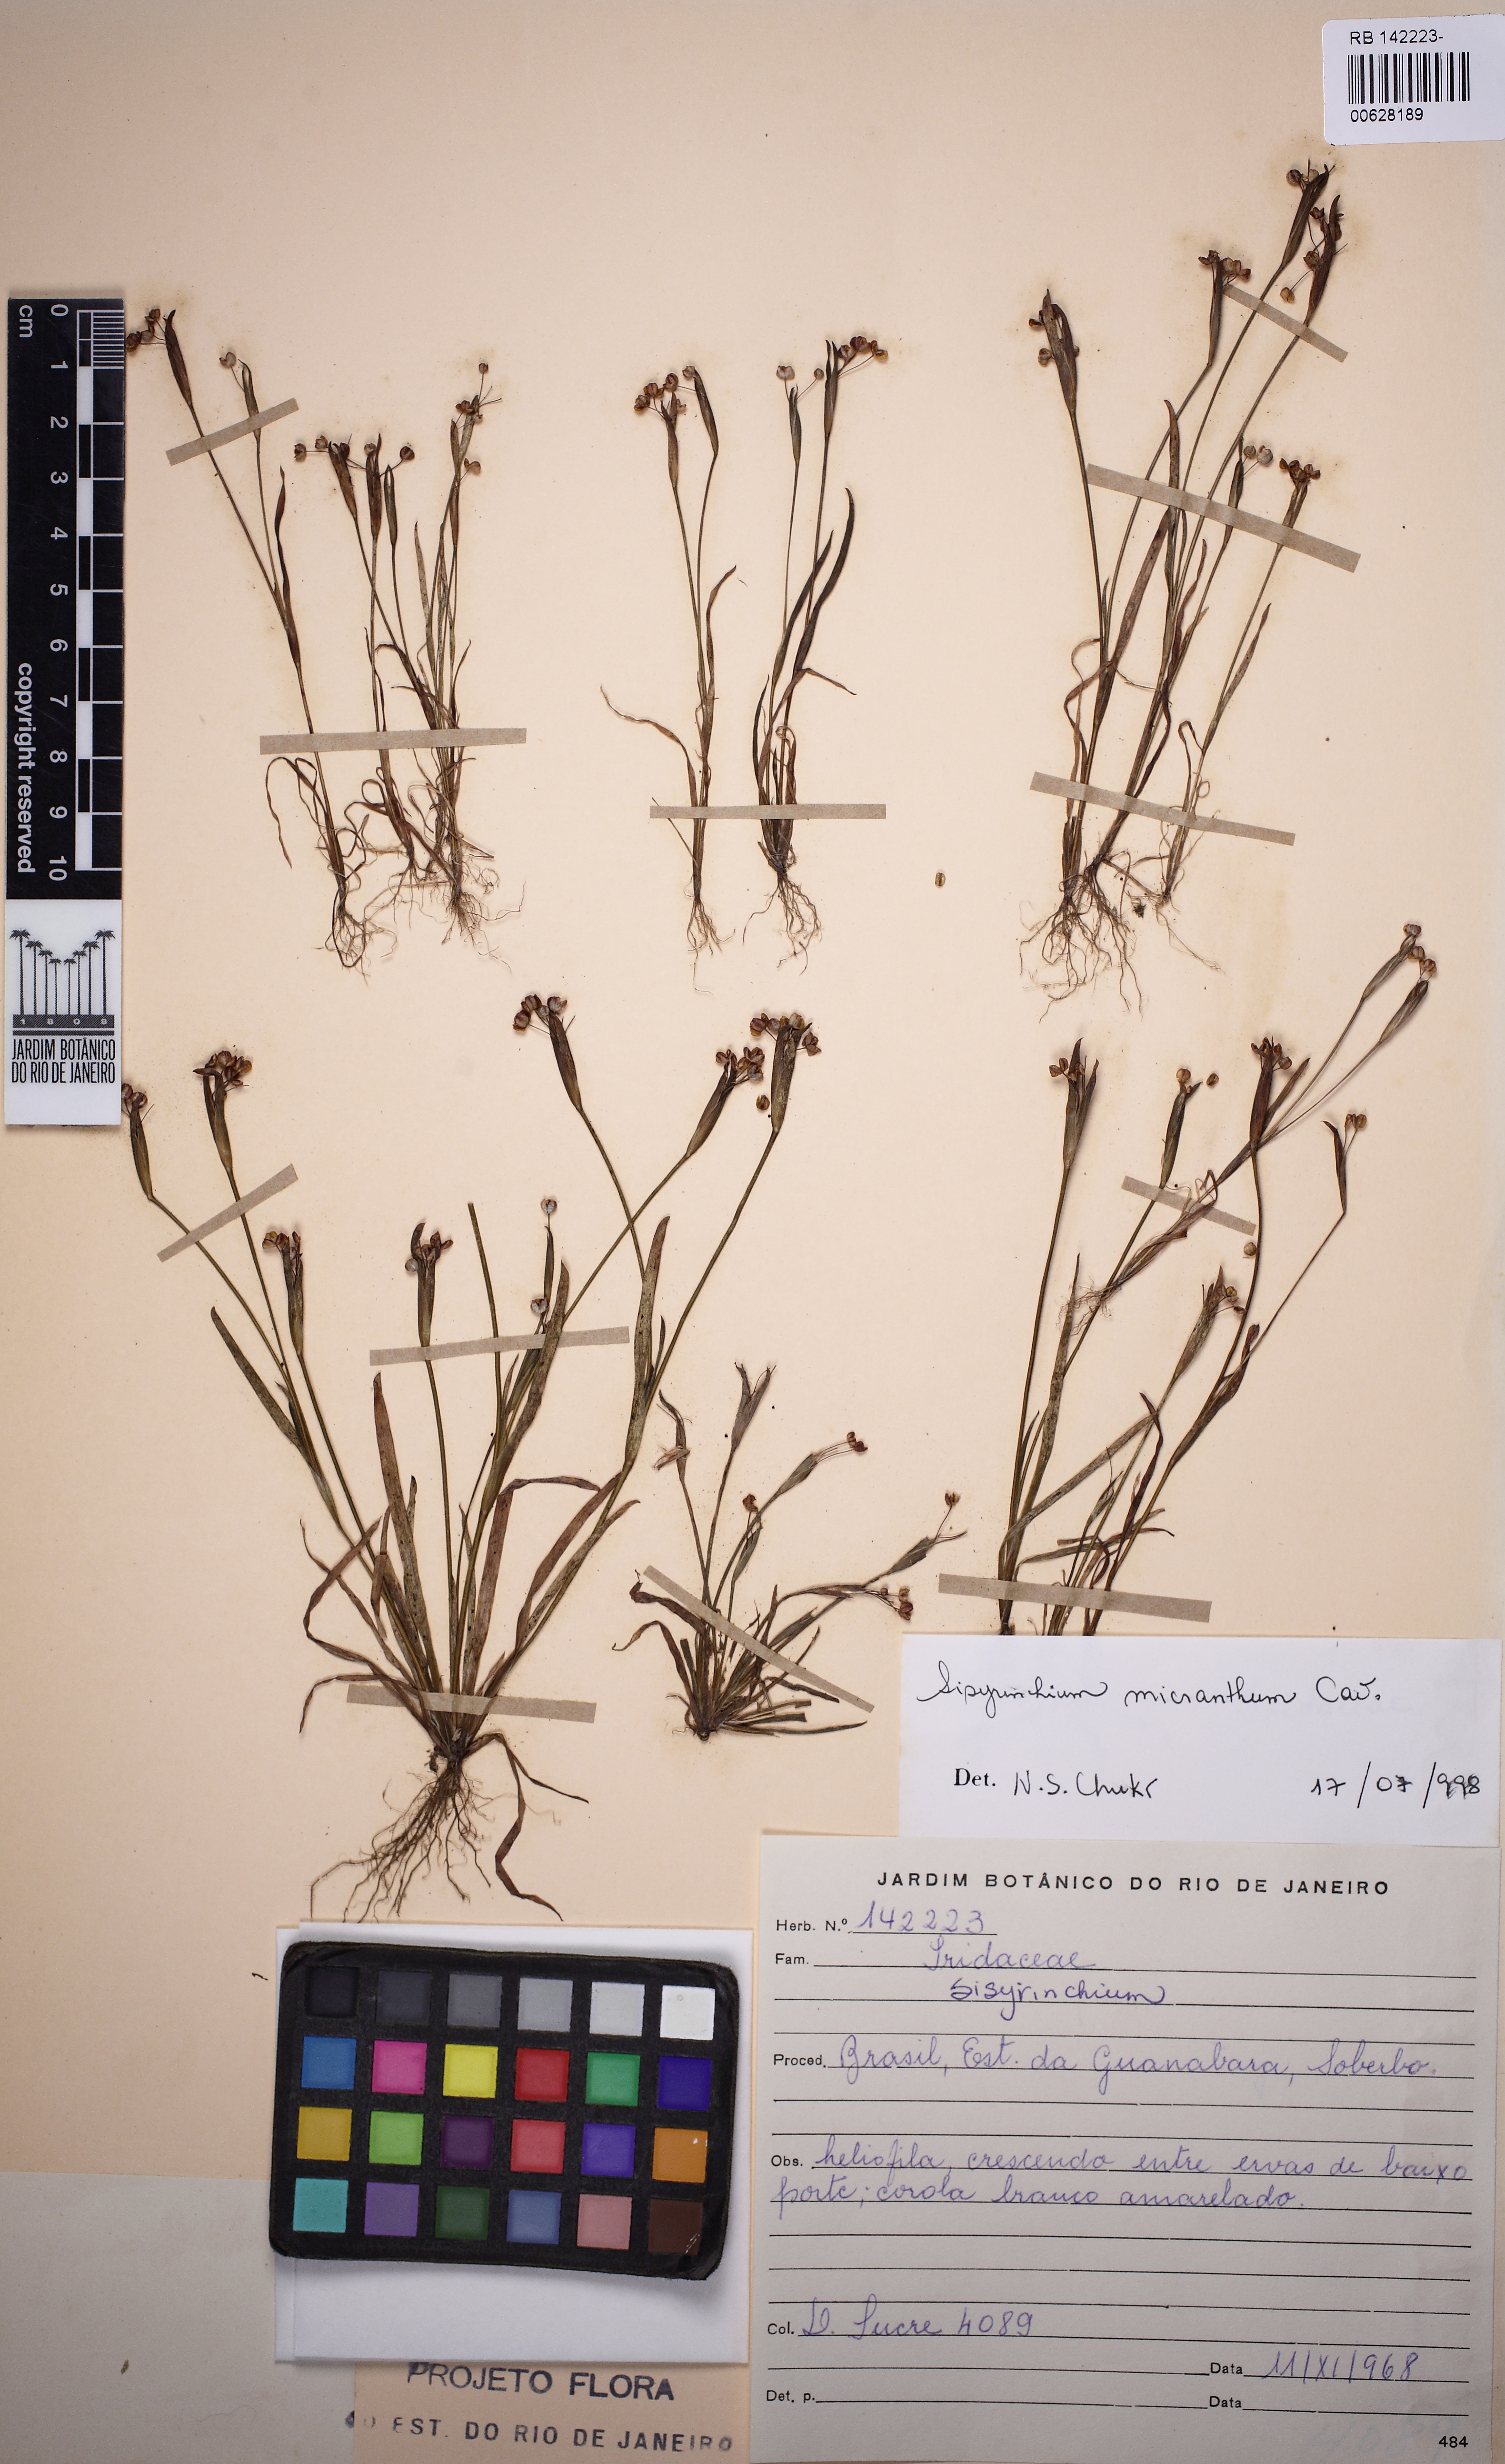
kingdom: Plantae
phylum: Tracheophyta
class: Liliopsida
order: Asparagales
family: Iridaceae
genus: Sisyrinchium
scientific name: Sisyrinchium micranthum
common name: Bermuda pigroot
